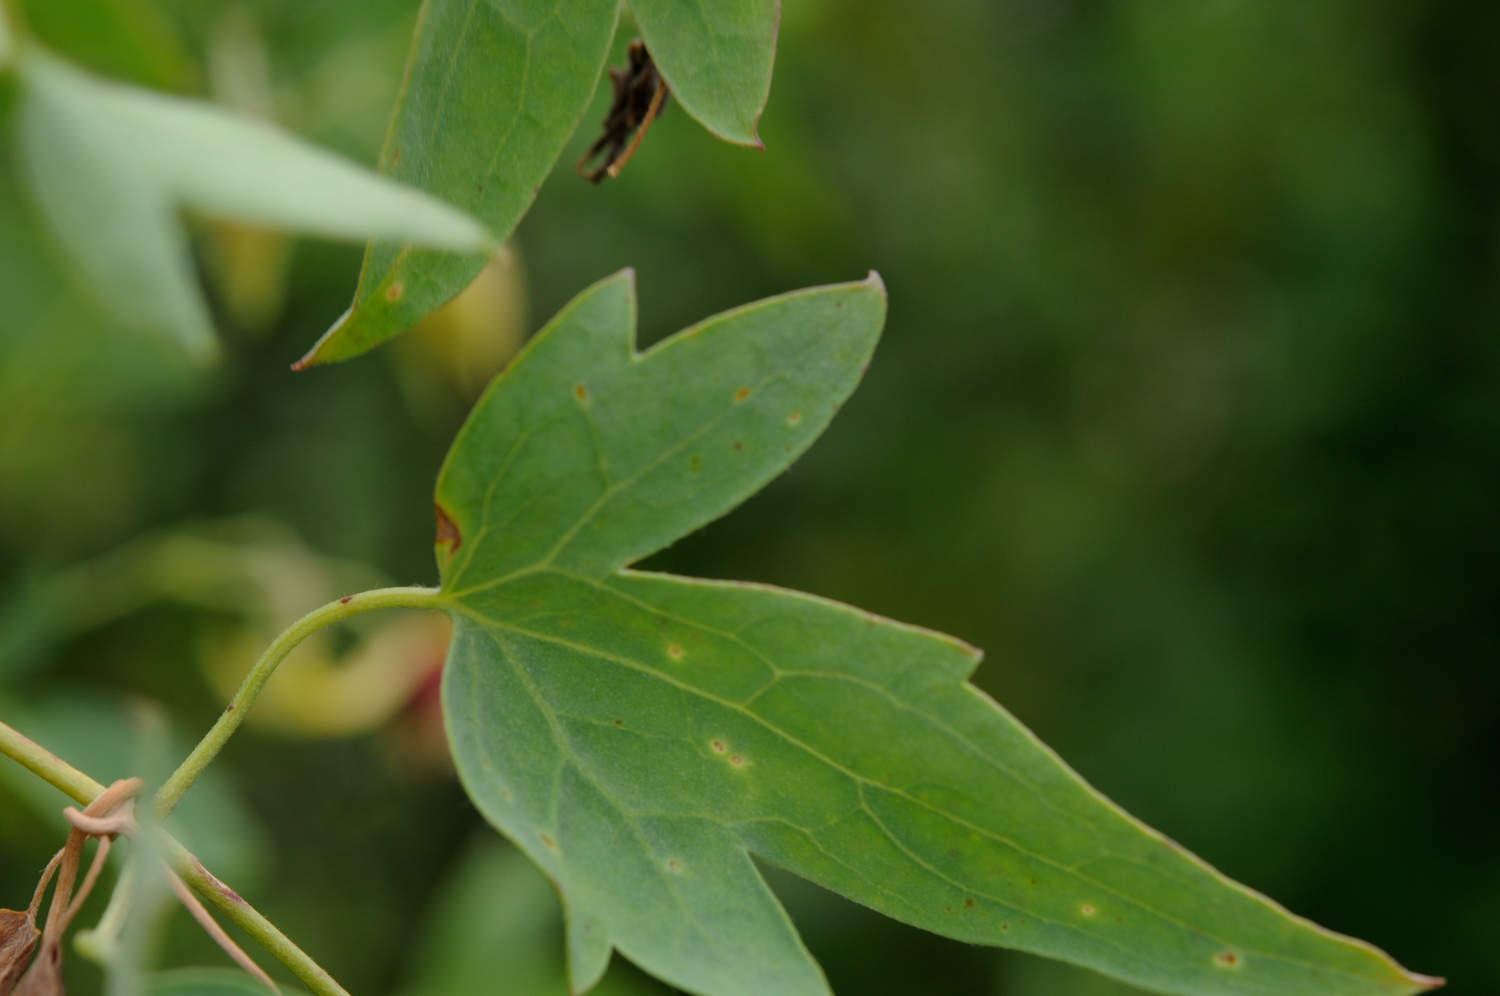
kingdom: Plantae
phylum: Tracheophyta
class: Magnoliopsida
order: Ranunculales
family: Ranunculaceae
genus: Clematis
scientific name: Clematis orientalis
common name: Oriental virgin's-bower
